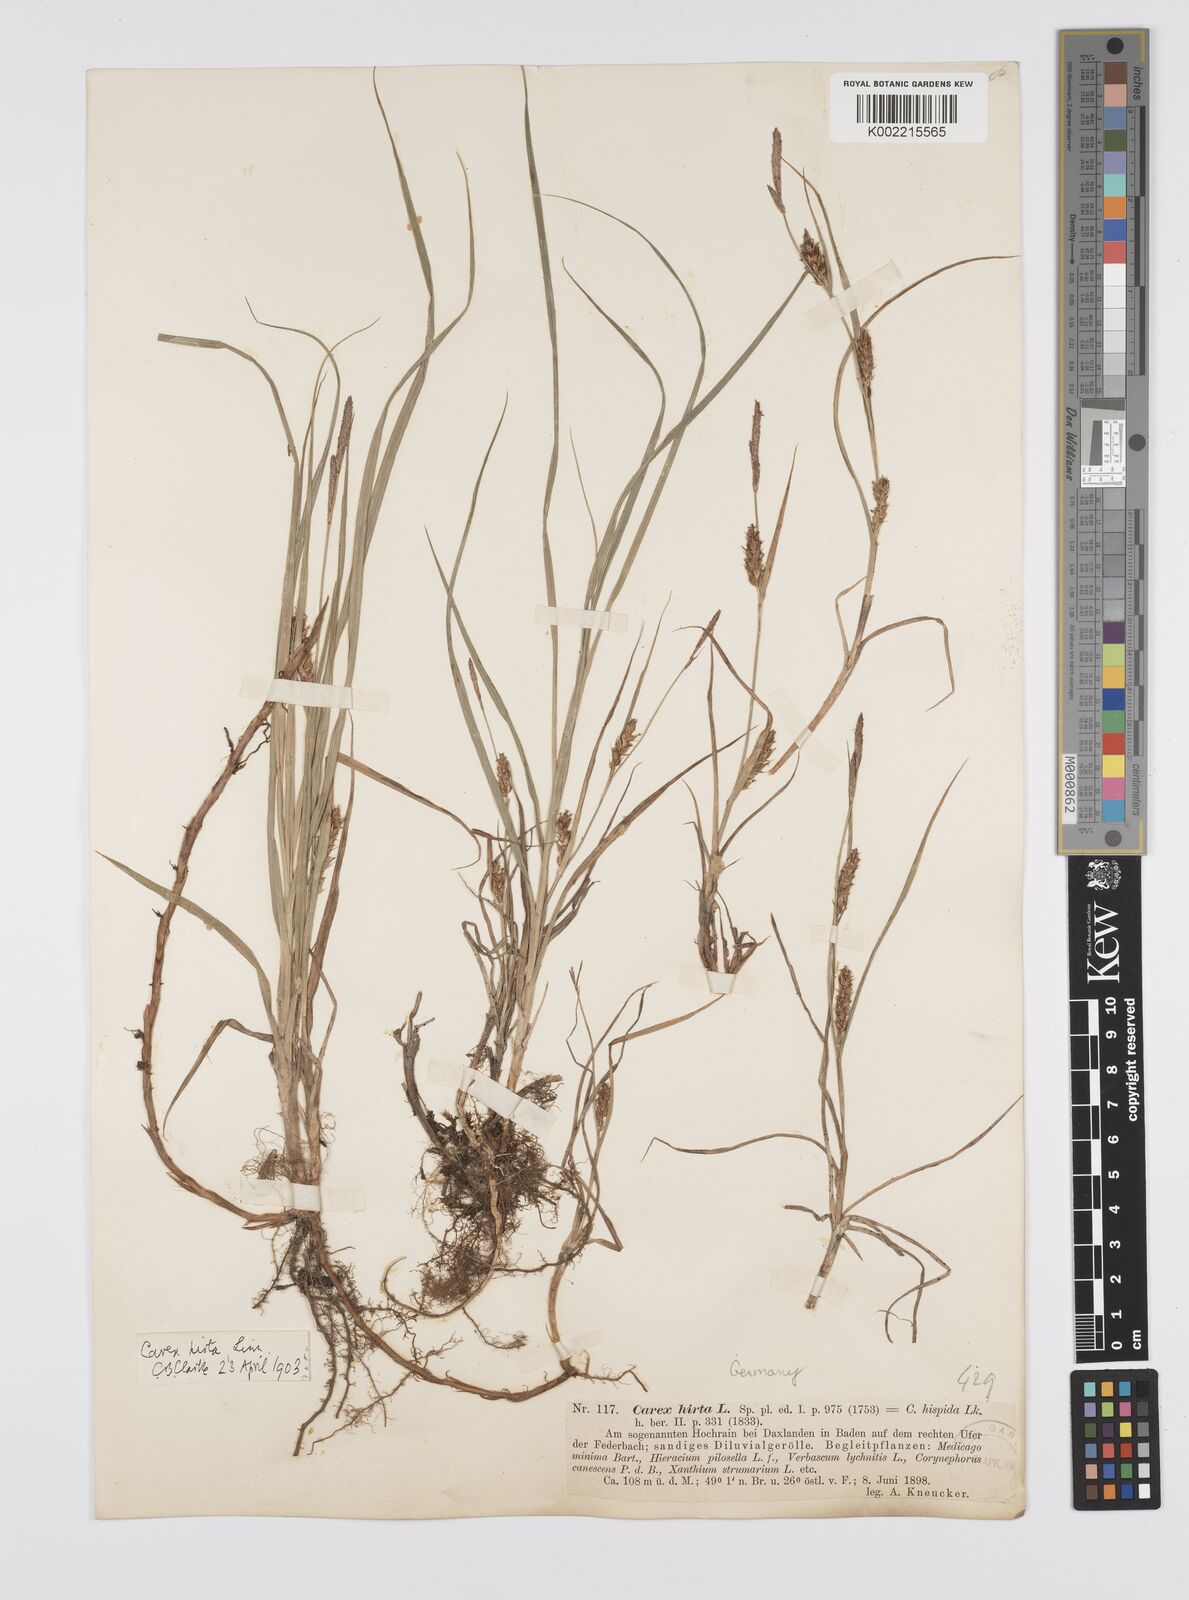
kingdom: Plantae
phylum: Tracheophyta
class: Liliopsida
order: Poales
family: Cyperaceae
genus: Carex
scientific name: Carex hirta
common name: Hairy sedge
